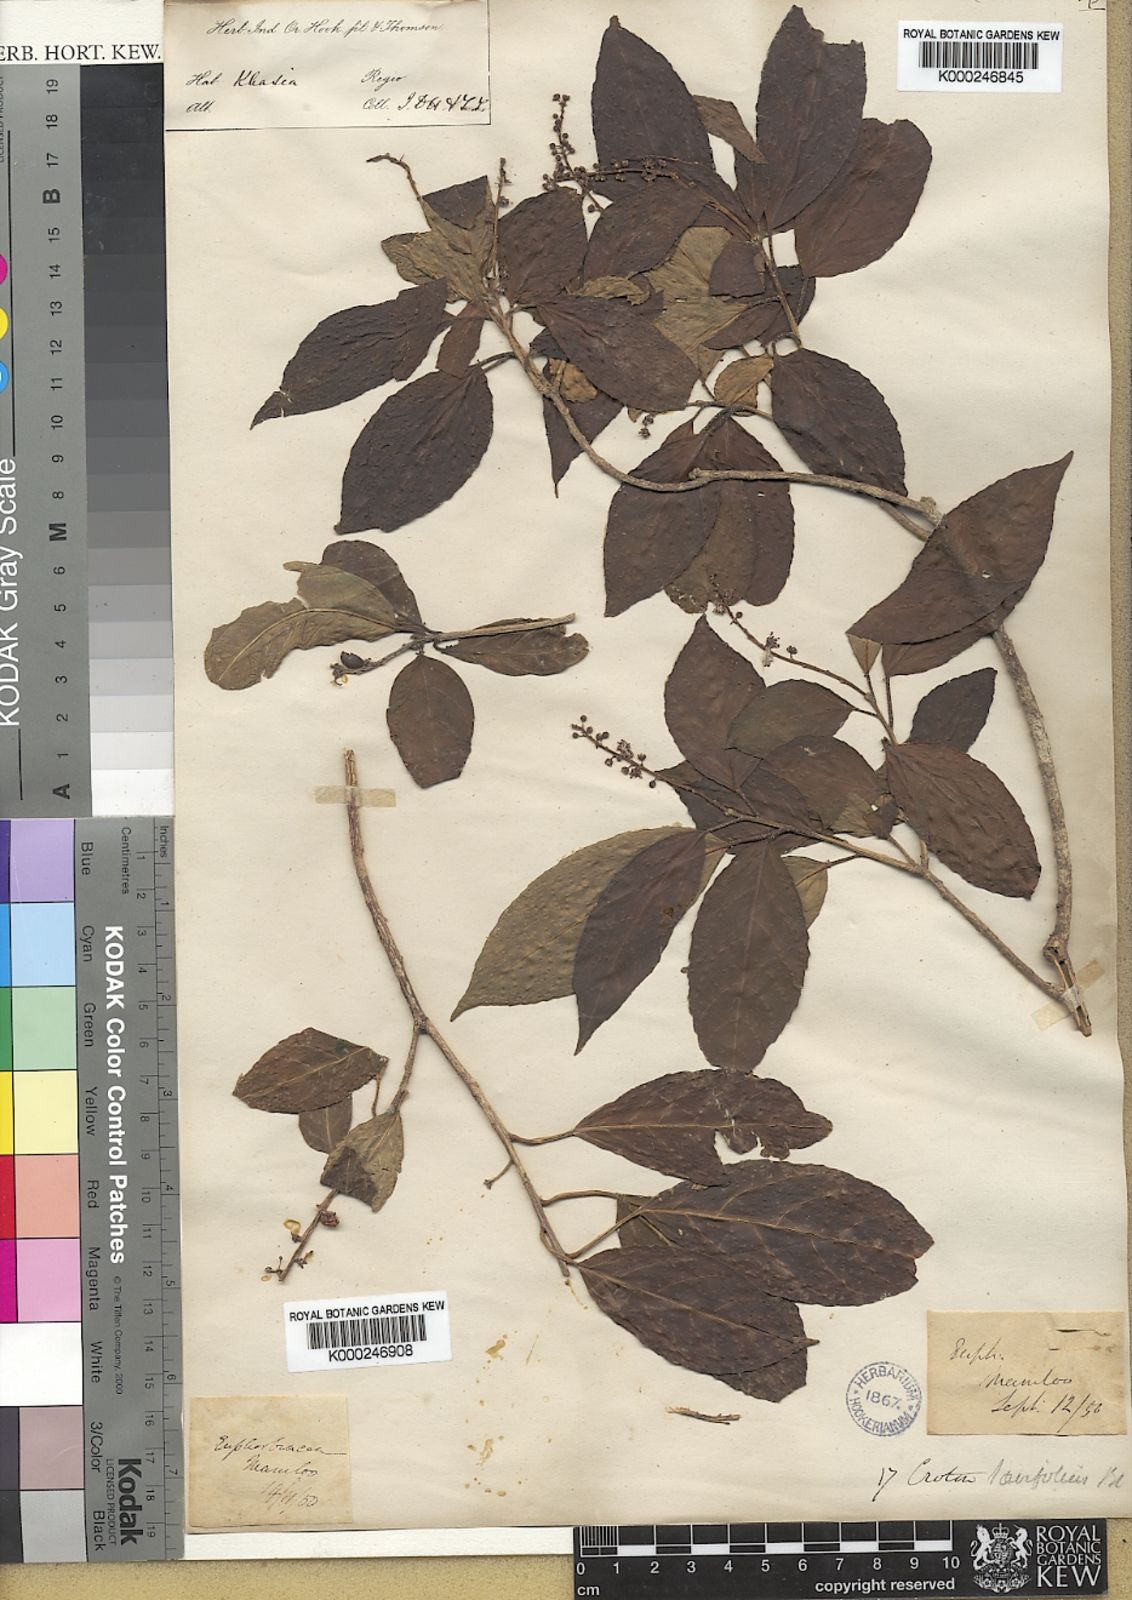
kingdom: Plantae
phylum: Tracheophyta
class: Magnoliopsida
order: Malpighiales
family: Euphorbiaceae
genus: Croton
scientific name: Croton
